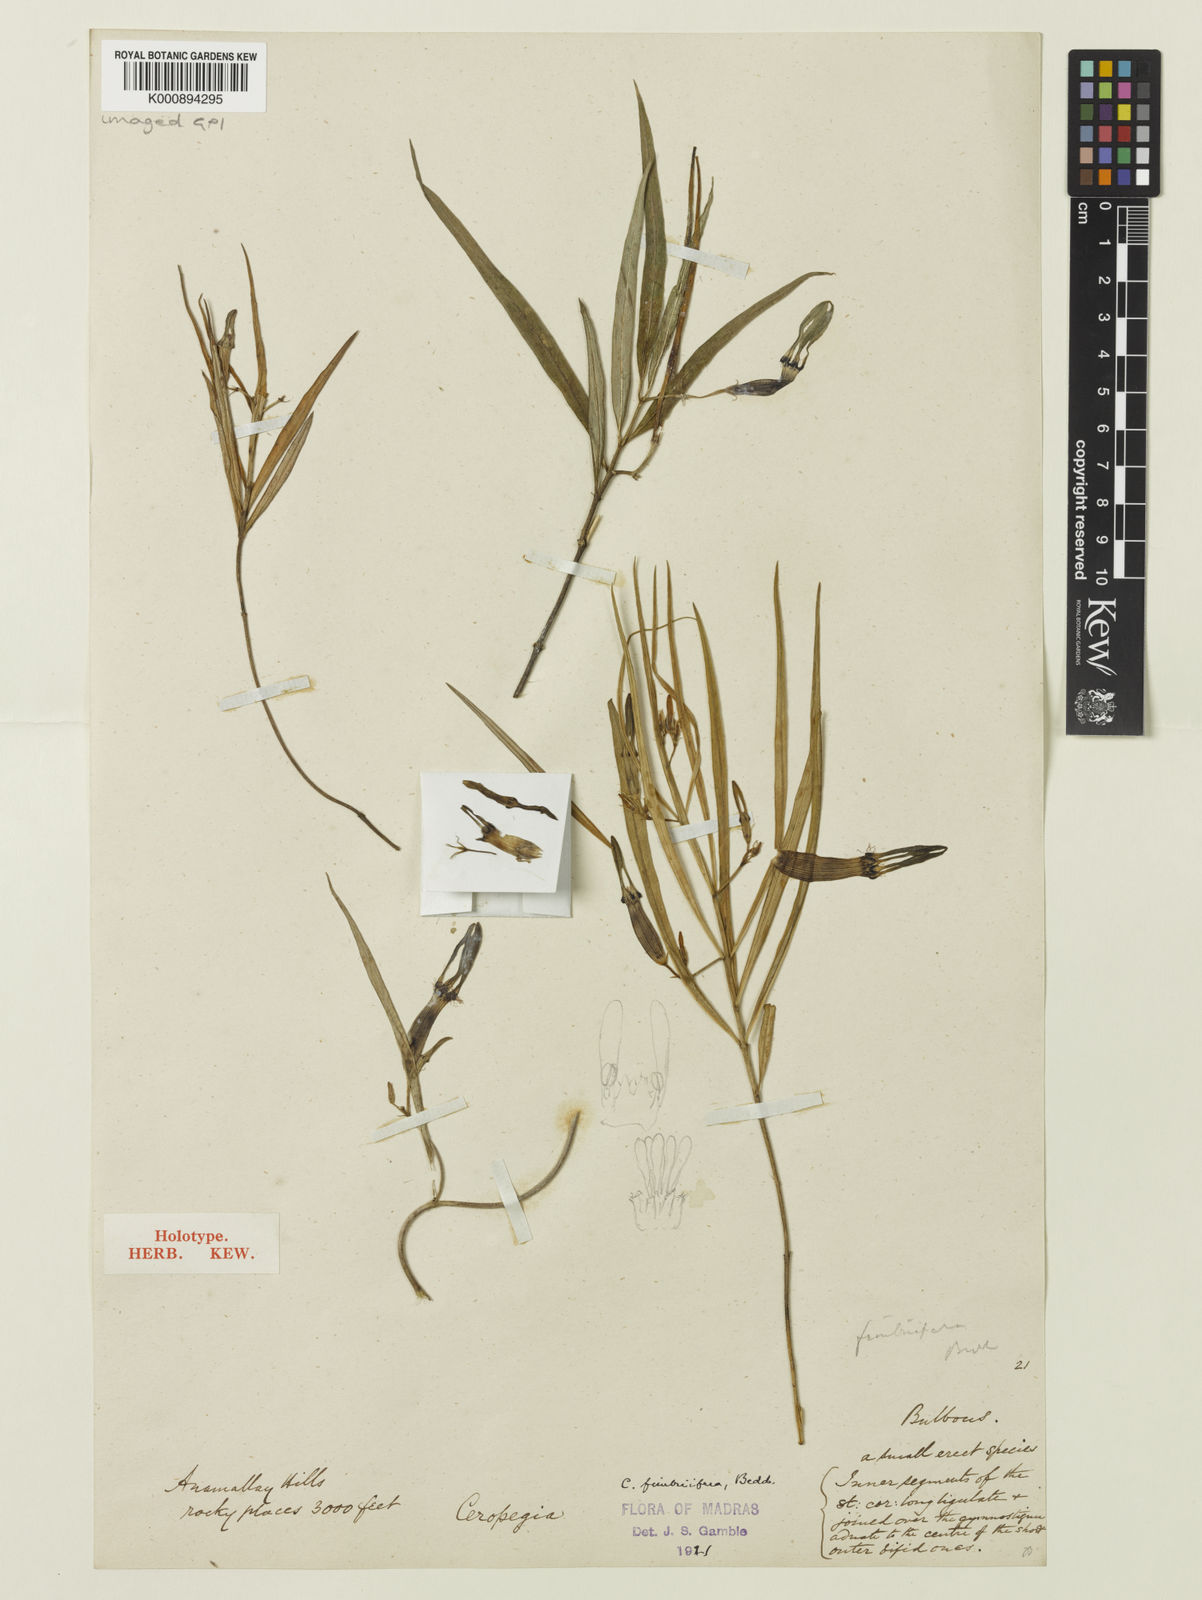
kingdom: Plantae
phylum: Tracheophyta
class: Magnoliopsida
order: Gentianales
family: Apocynaceae
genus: Ceropegia
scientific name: Ceropegia fimbriifera
